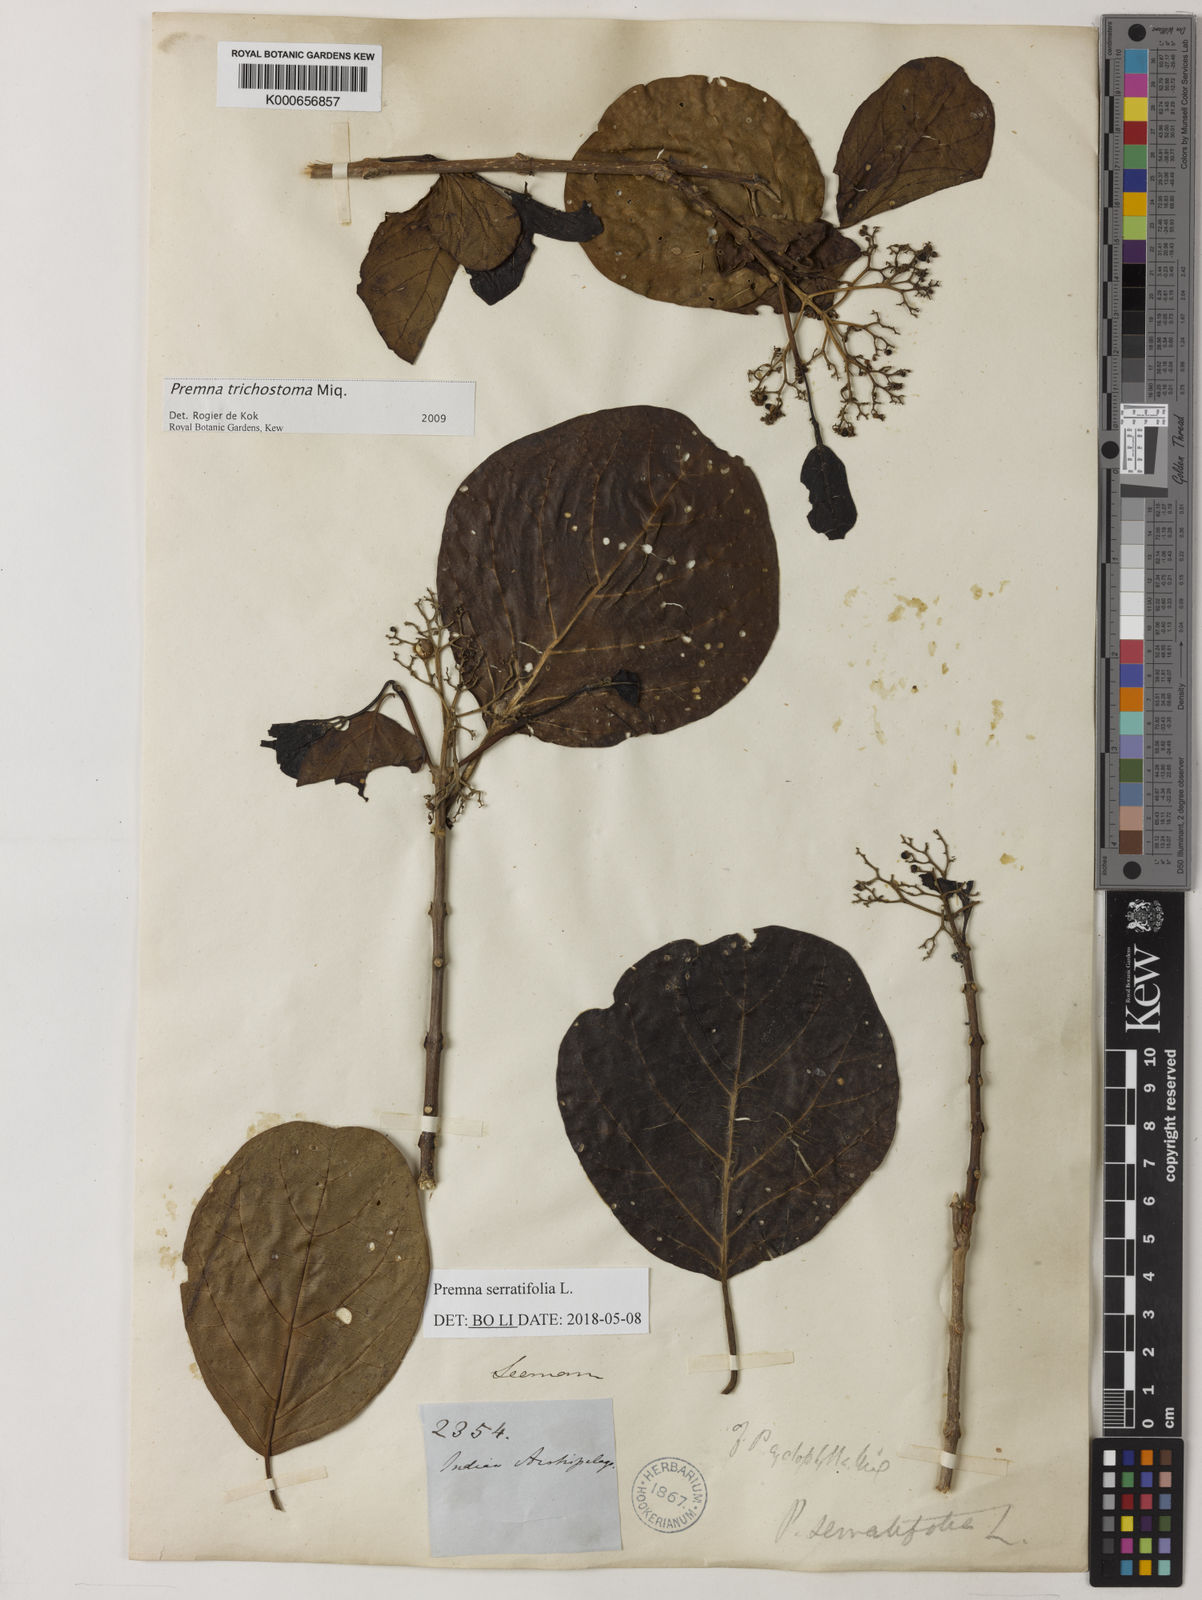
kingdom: Plantae
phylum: Tracheophyta
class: Magnoliopsida
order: Lamiales
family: Lamiaceae
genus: Premna
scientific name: Premna trichostoma
